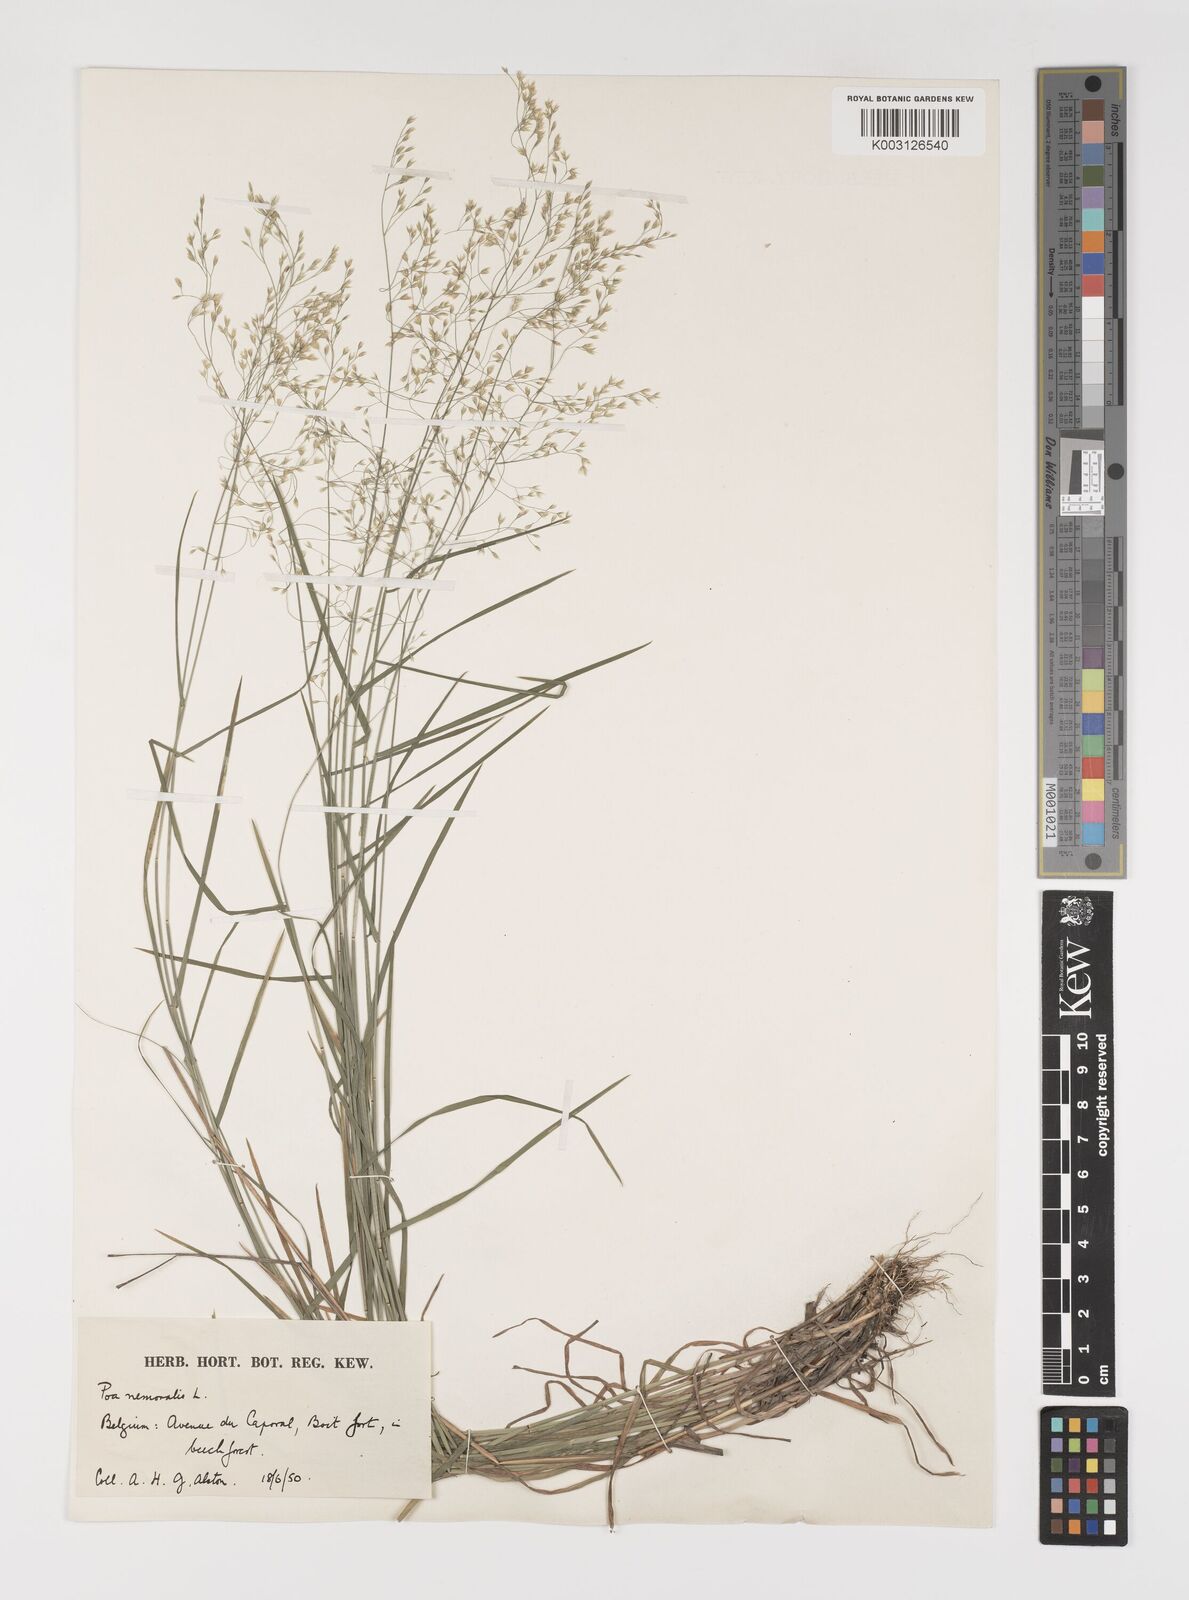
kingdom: Plantae
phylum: Tracheophyta
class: Liliopsida
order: Poales
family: Poaceae
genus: Poa
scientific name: Poa nemoralis
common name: Wood bluegrass
